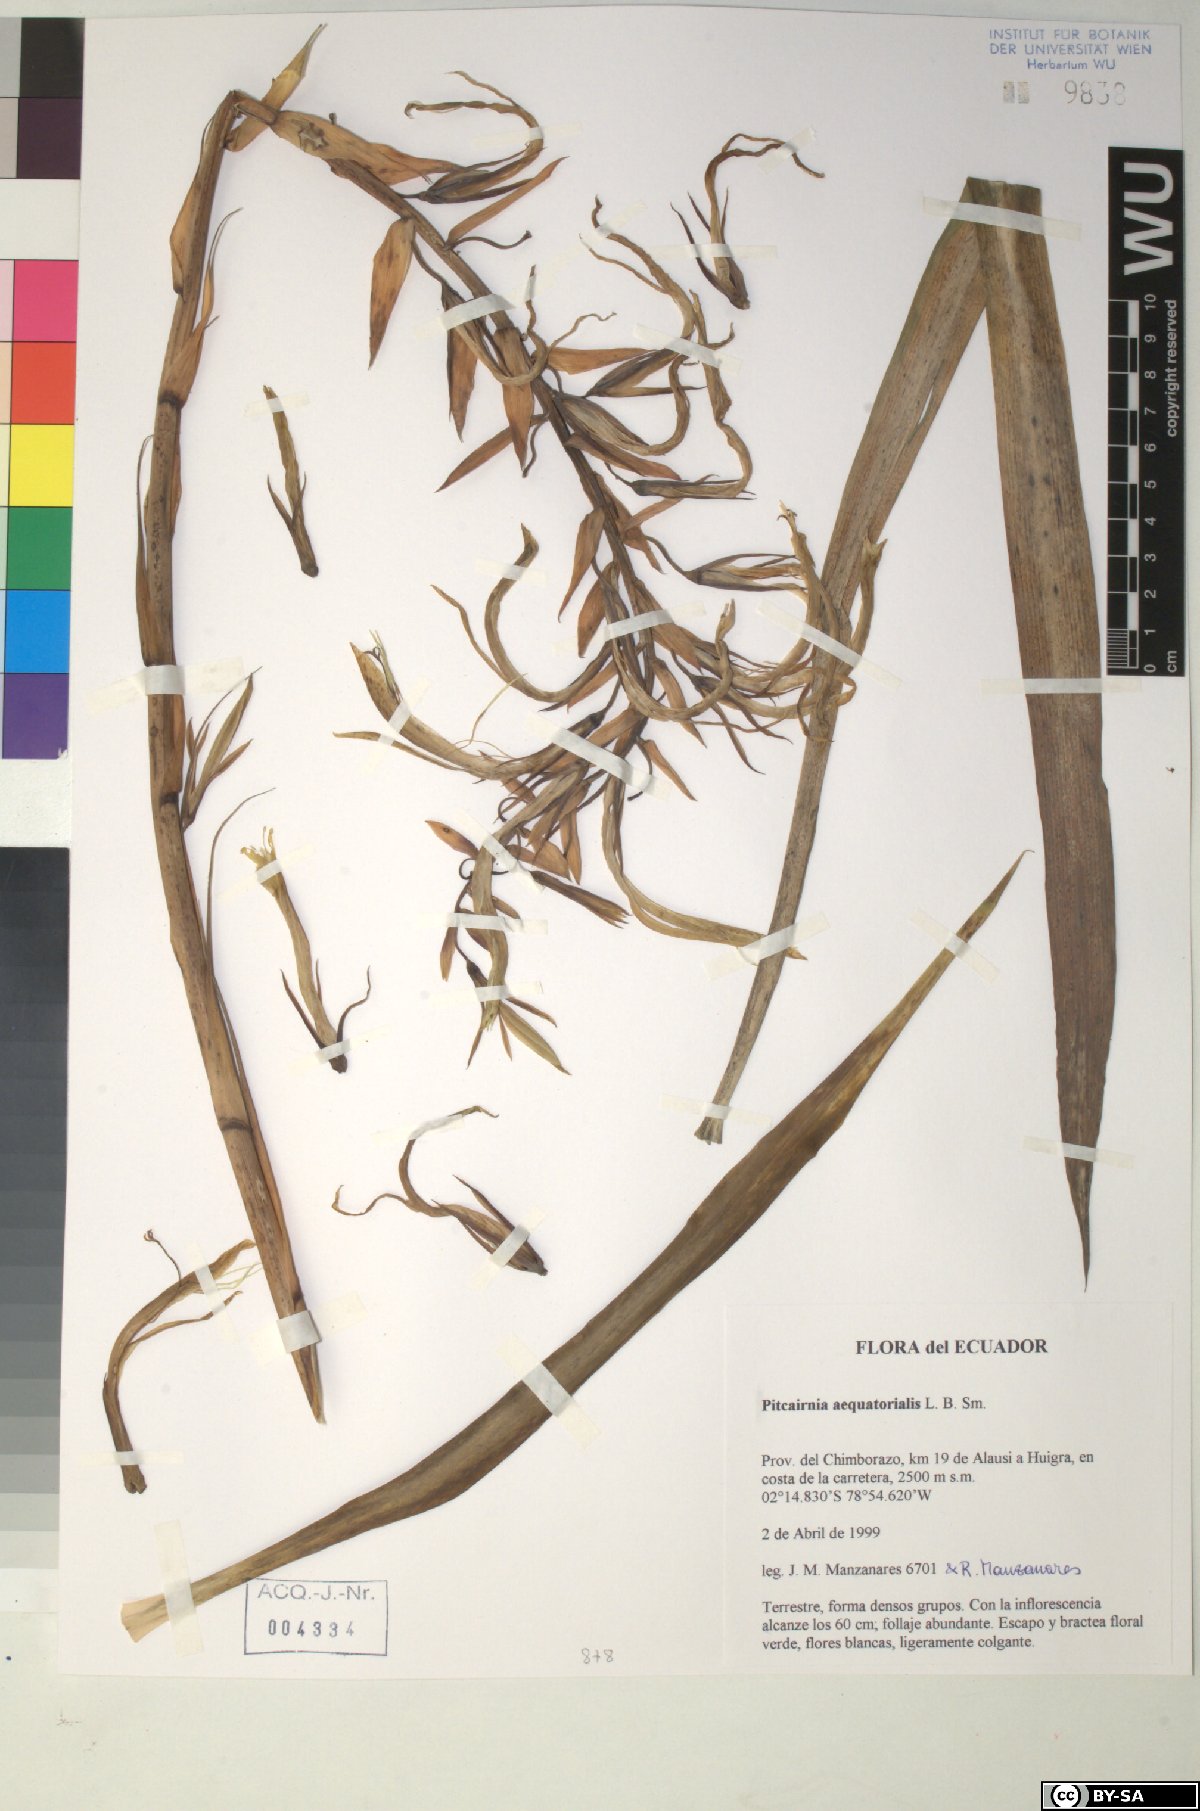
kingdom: Plantae
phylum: Tracheophyta
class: Liliopsida
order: Poales
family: Bromeliaceae
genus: Pitcairnia
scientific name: Pitcairnia aequatorialis
